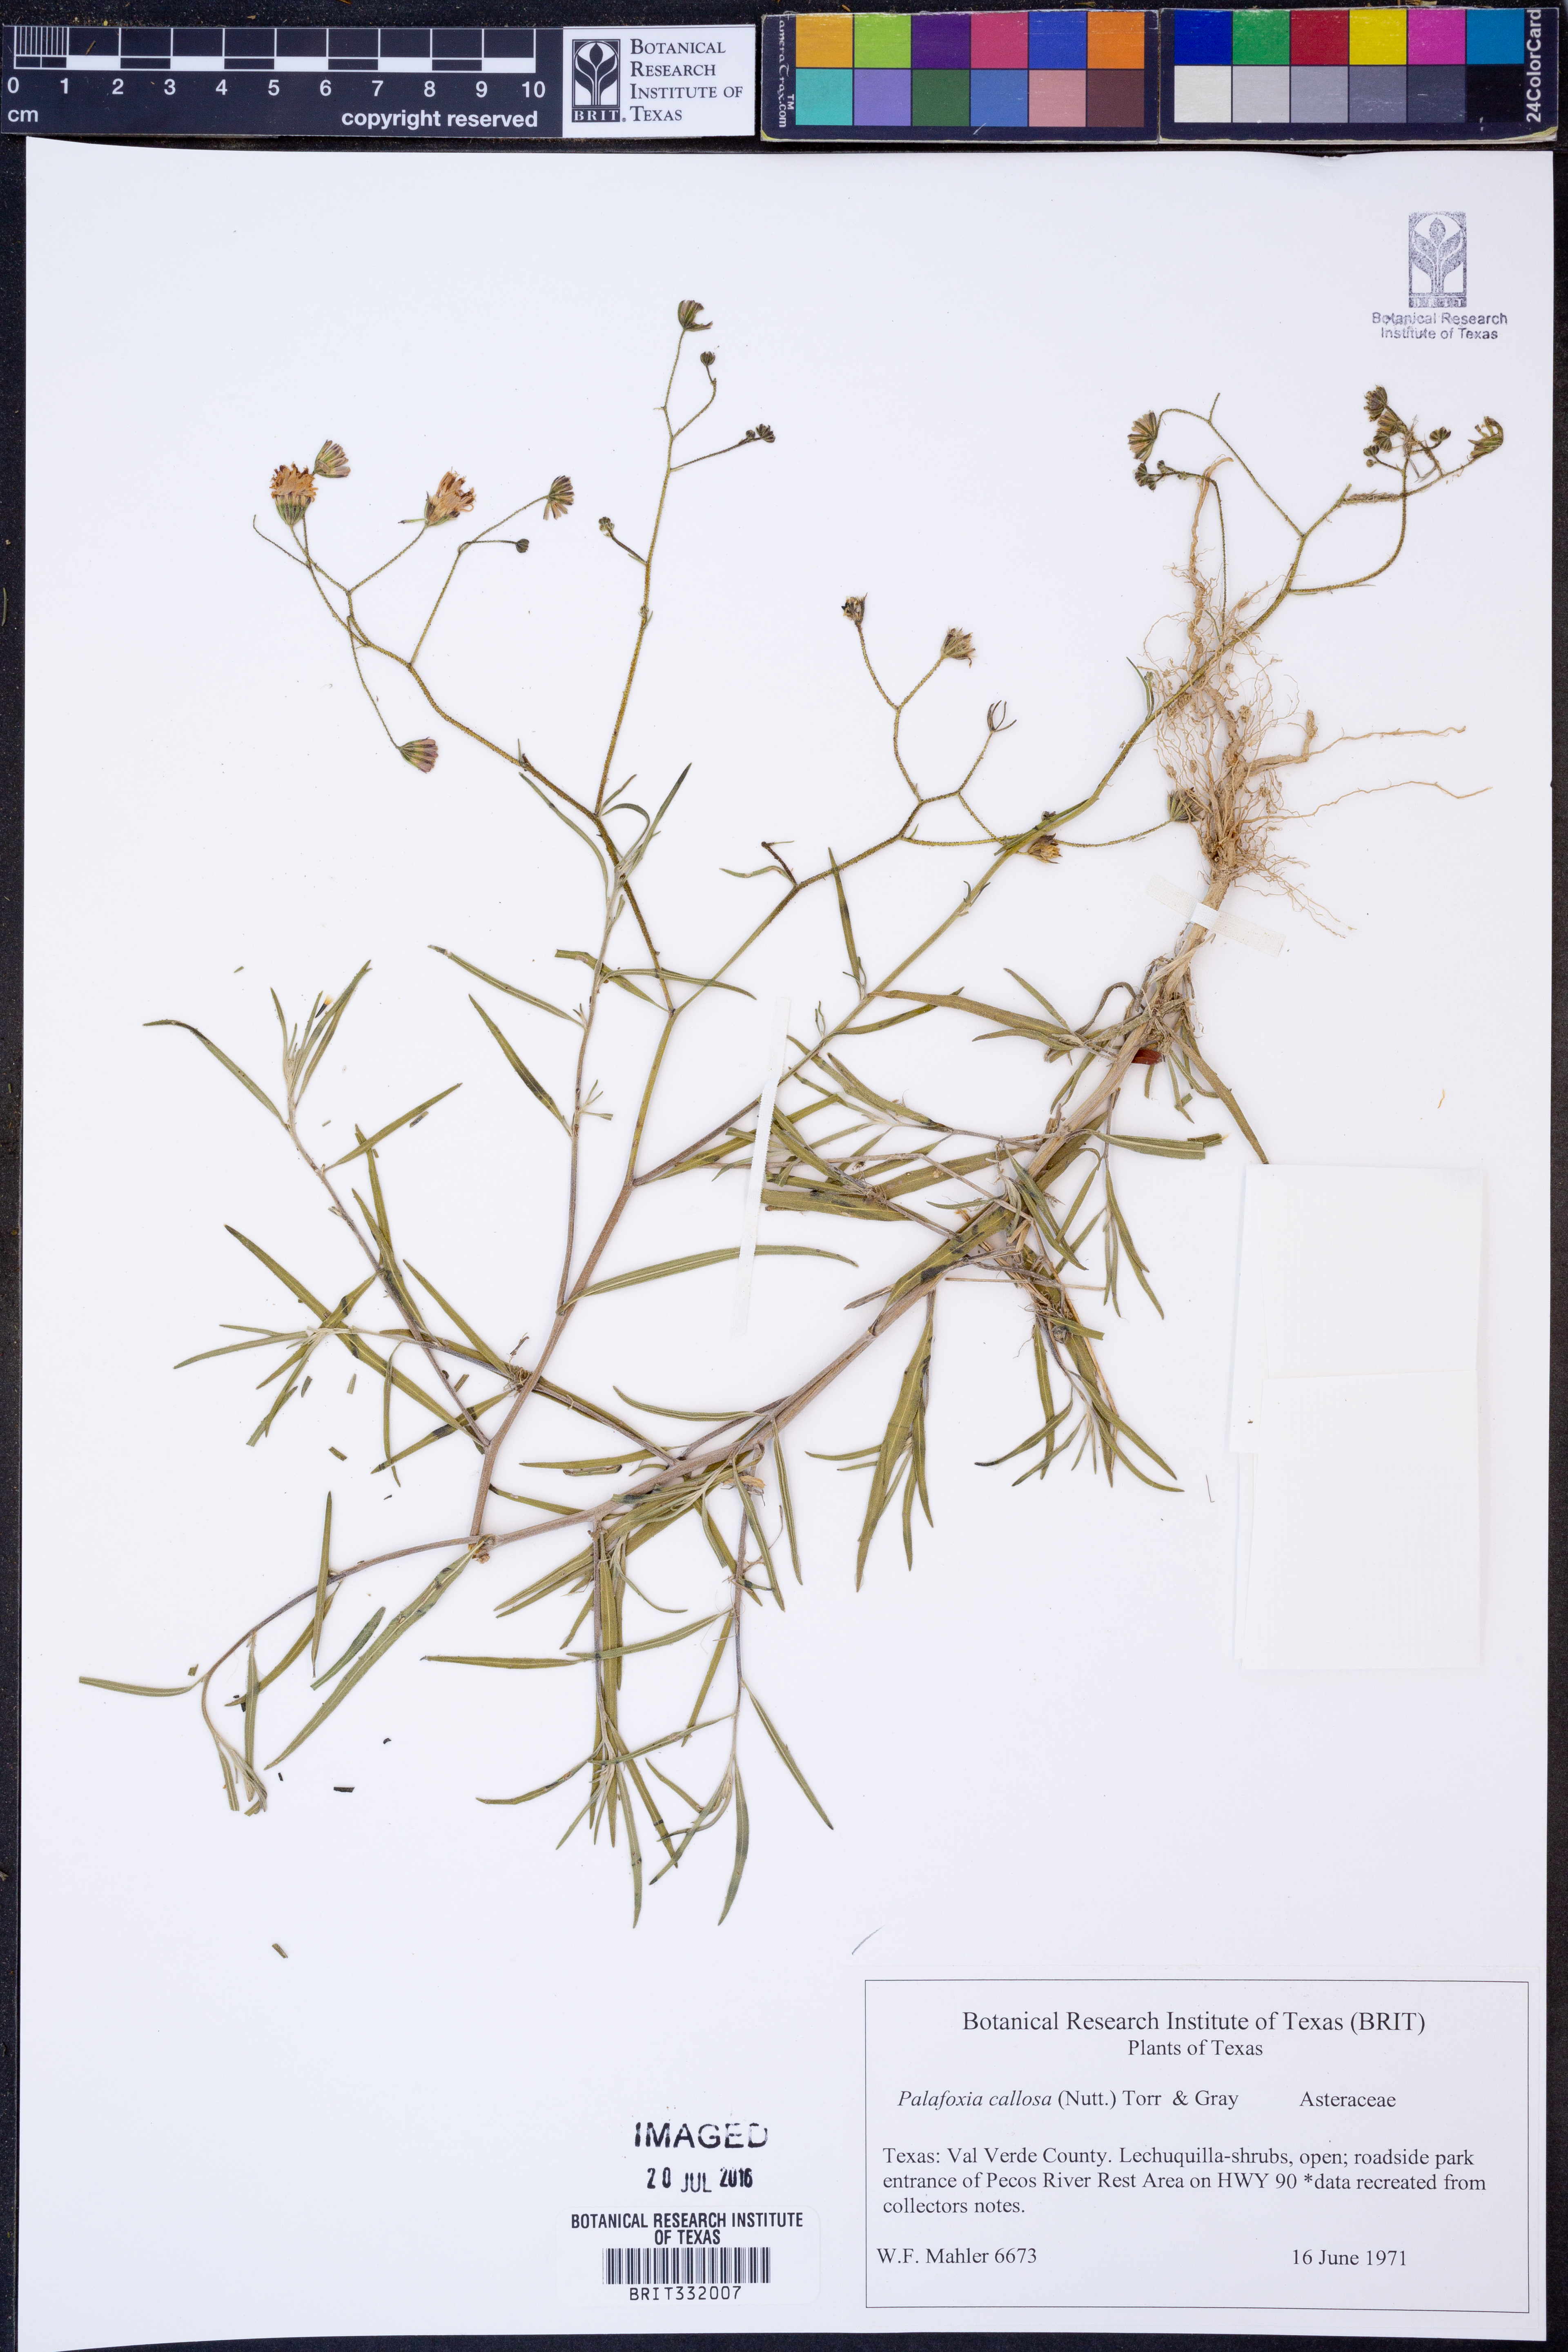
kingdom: Plantae
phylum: Tracheophyta
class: Magnoliopsida
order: Asterales
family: Asteraceae
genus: Palafoxia
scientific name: Palafoxia callosa
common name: Small palafox
